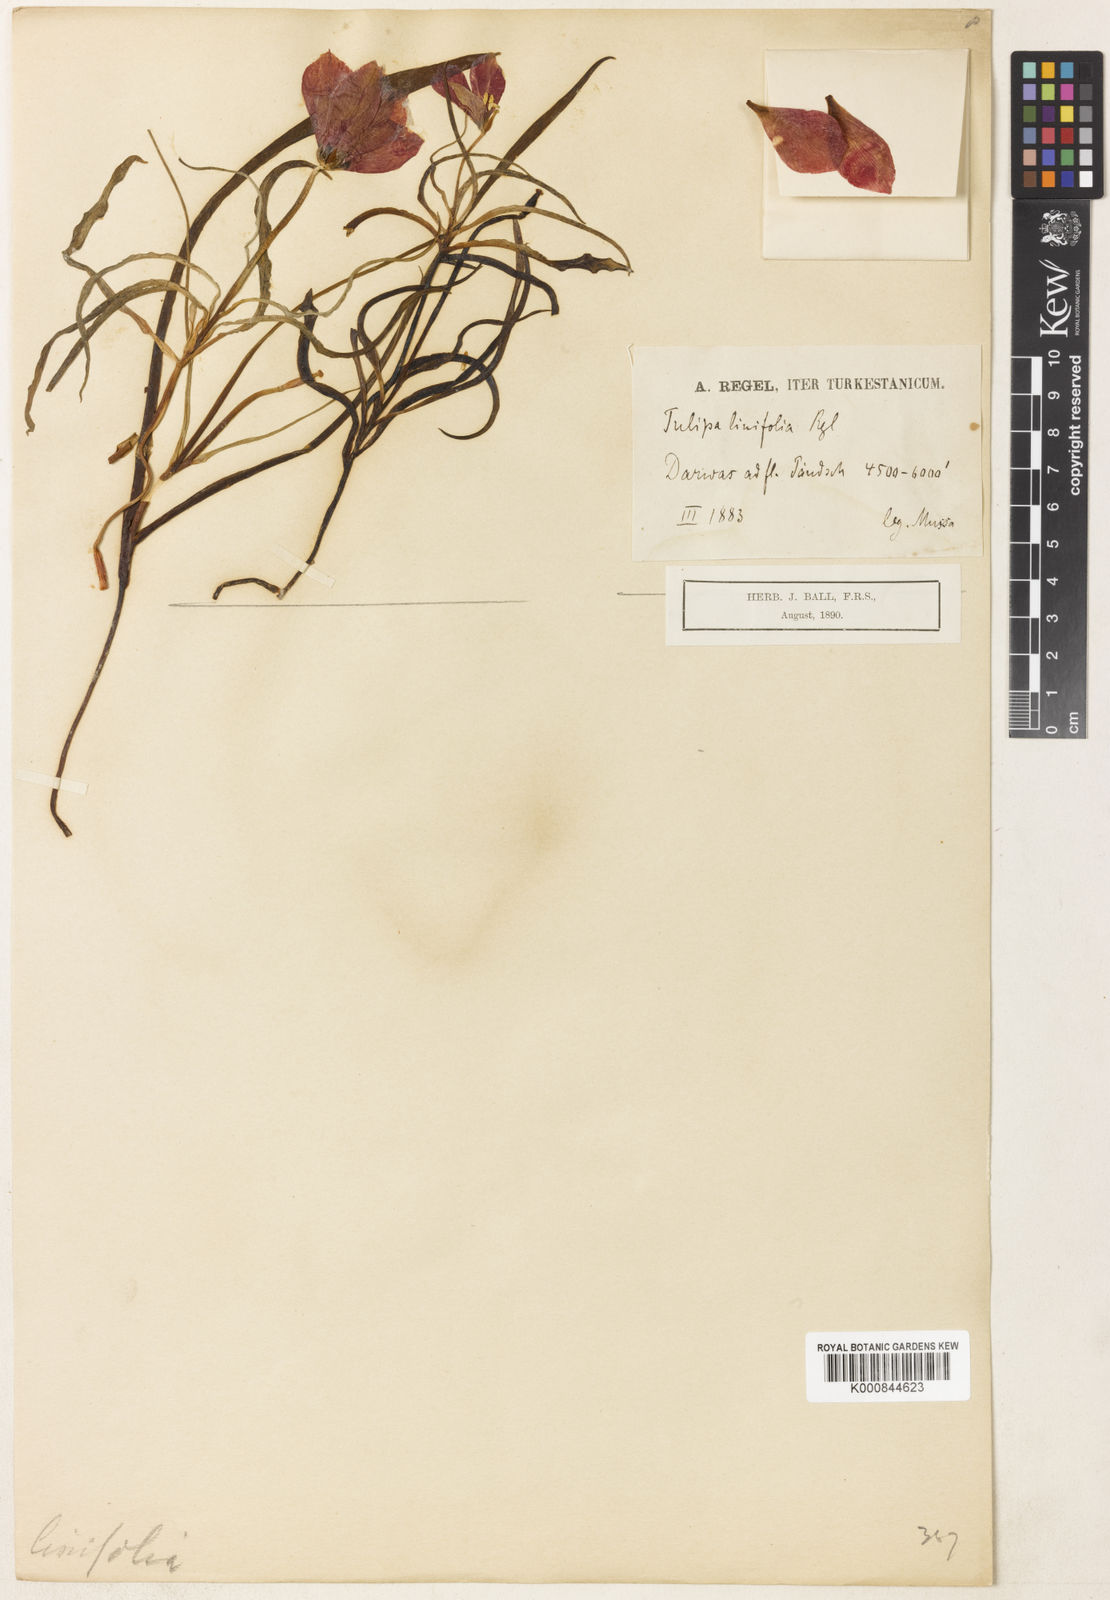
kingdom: Plantae
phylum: Tracheophyta
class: Liliopsida
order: Liliales
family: Liliaceae
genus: Tulipa
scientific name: Tulipa linifolia
